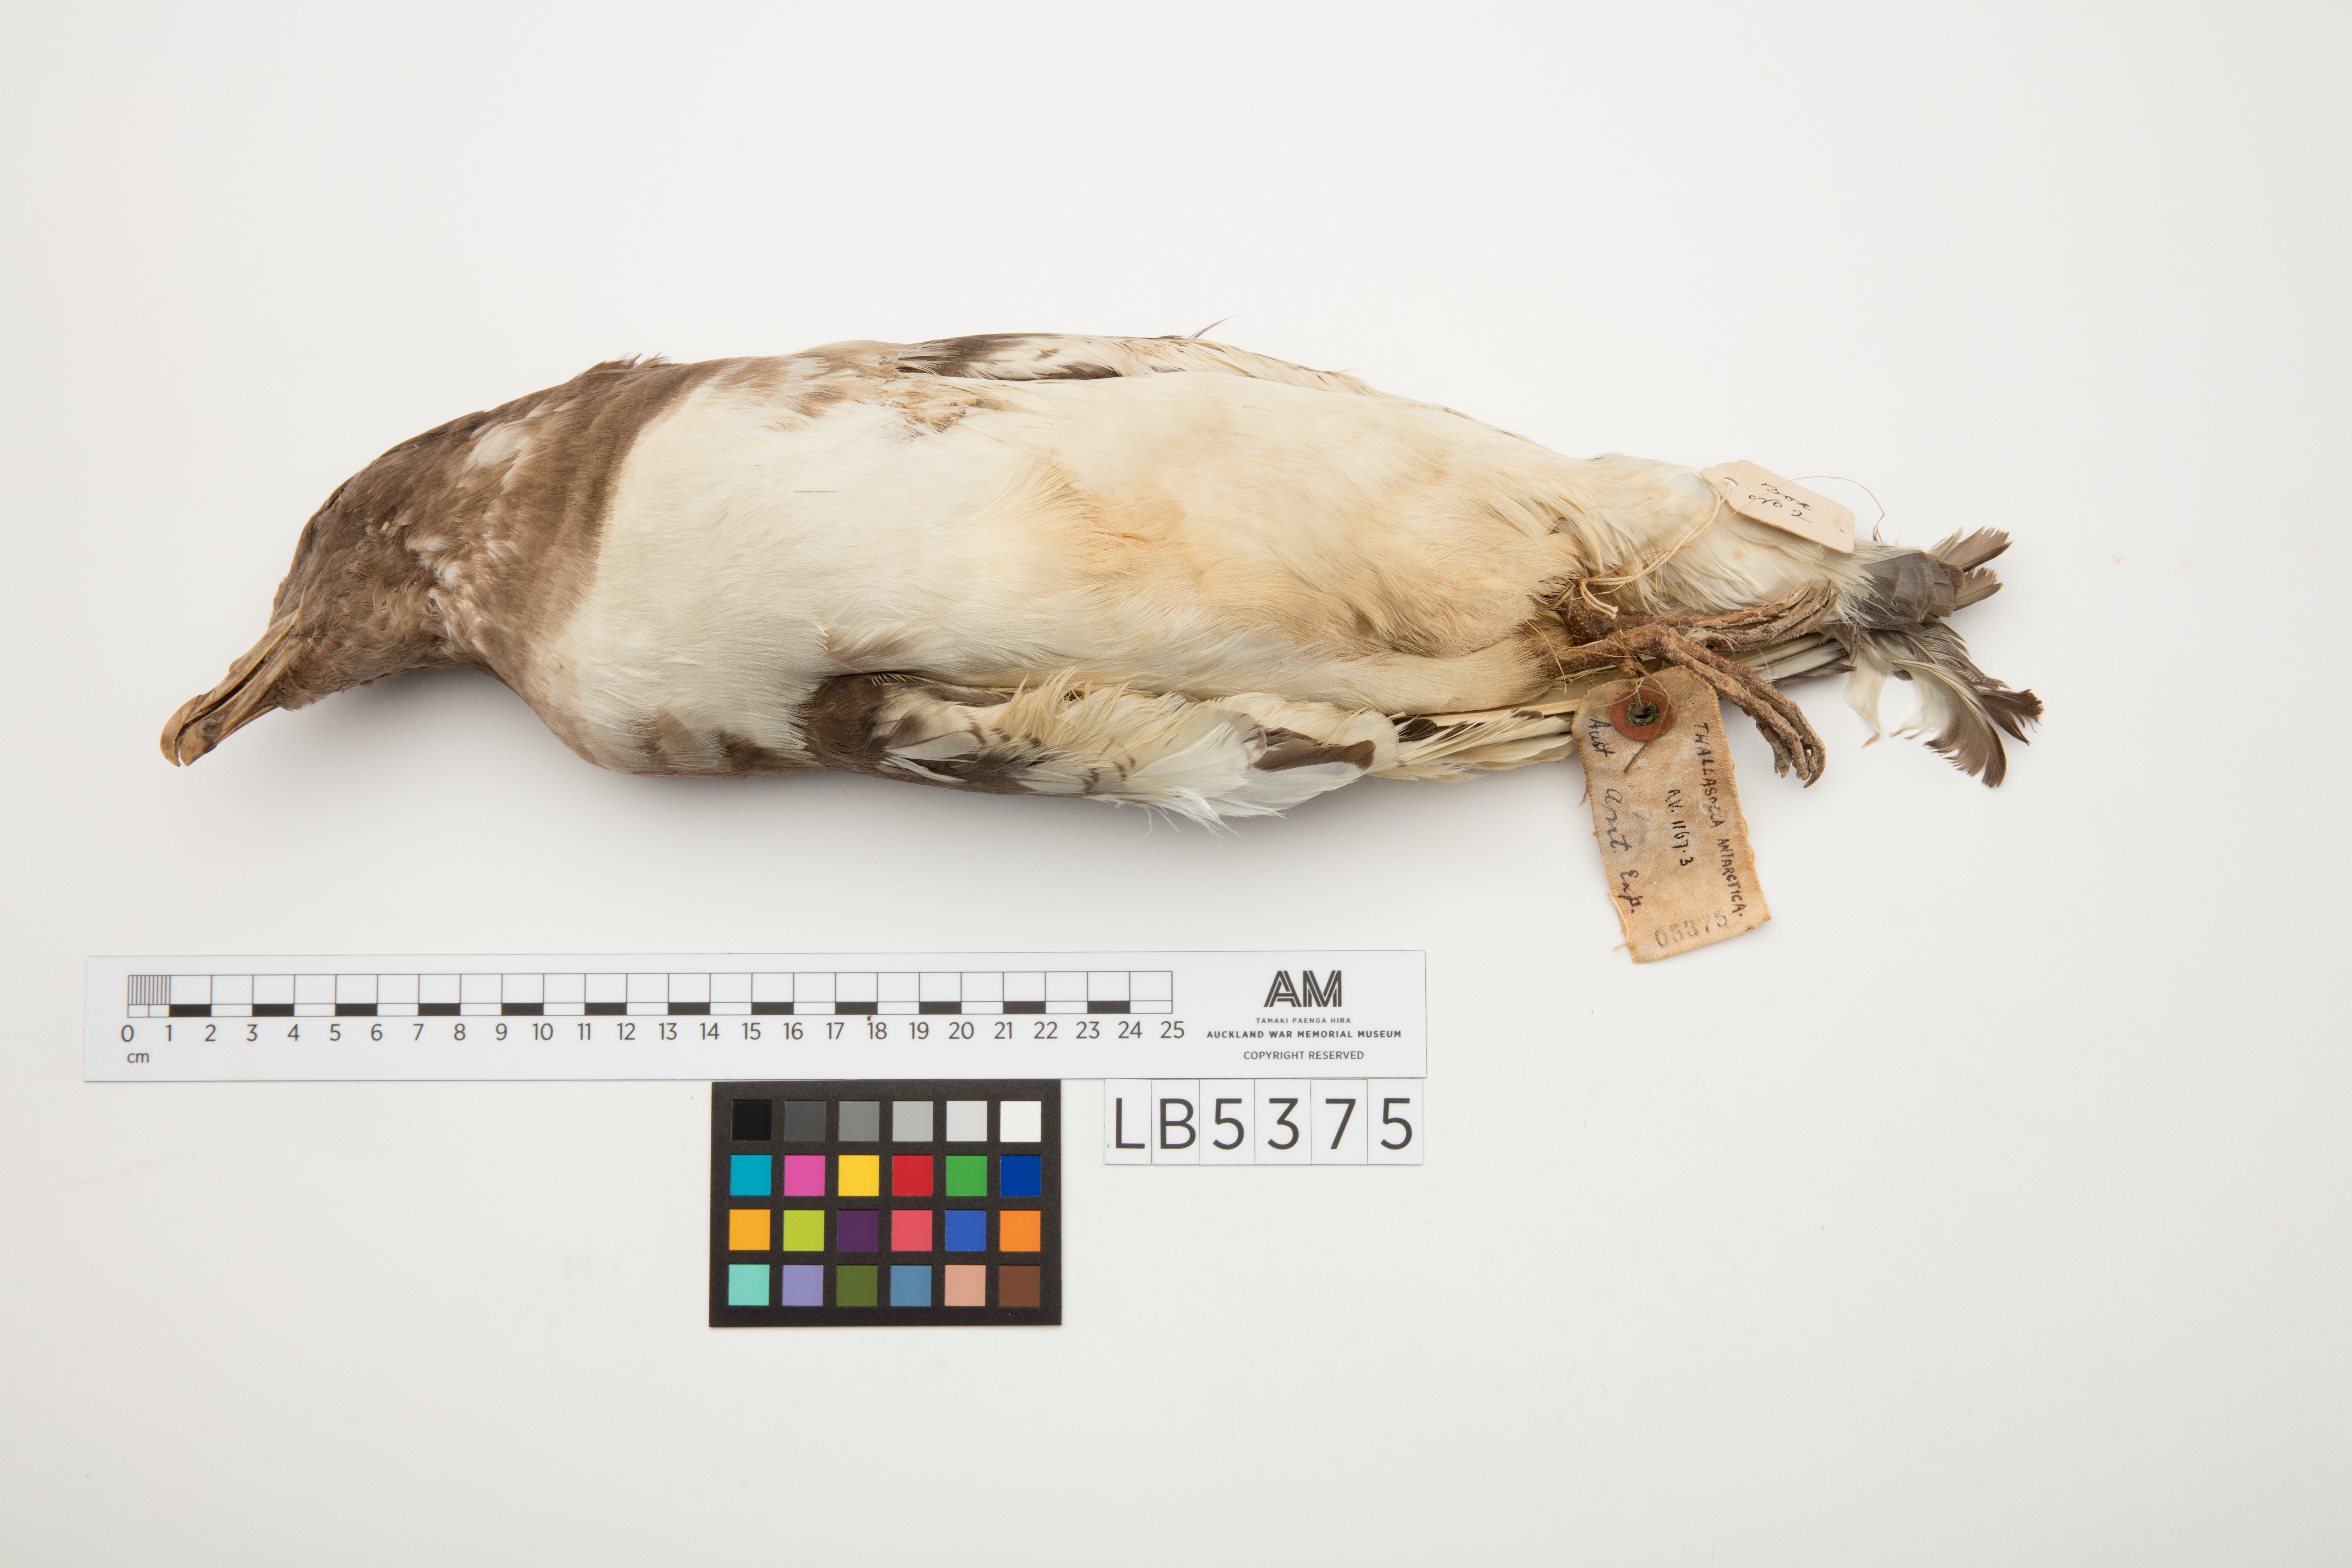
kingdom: Animalia
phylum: Chordata
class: Aves
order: Procellariiformes
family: Procellariidae
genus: Thalassoica
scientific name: Thalassoica antarctica
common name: Antarctic petrel
